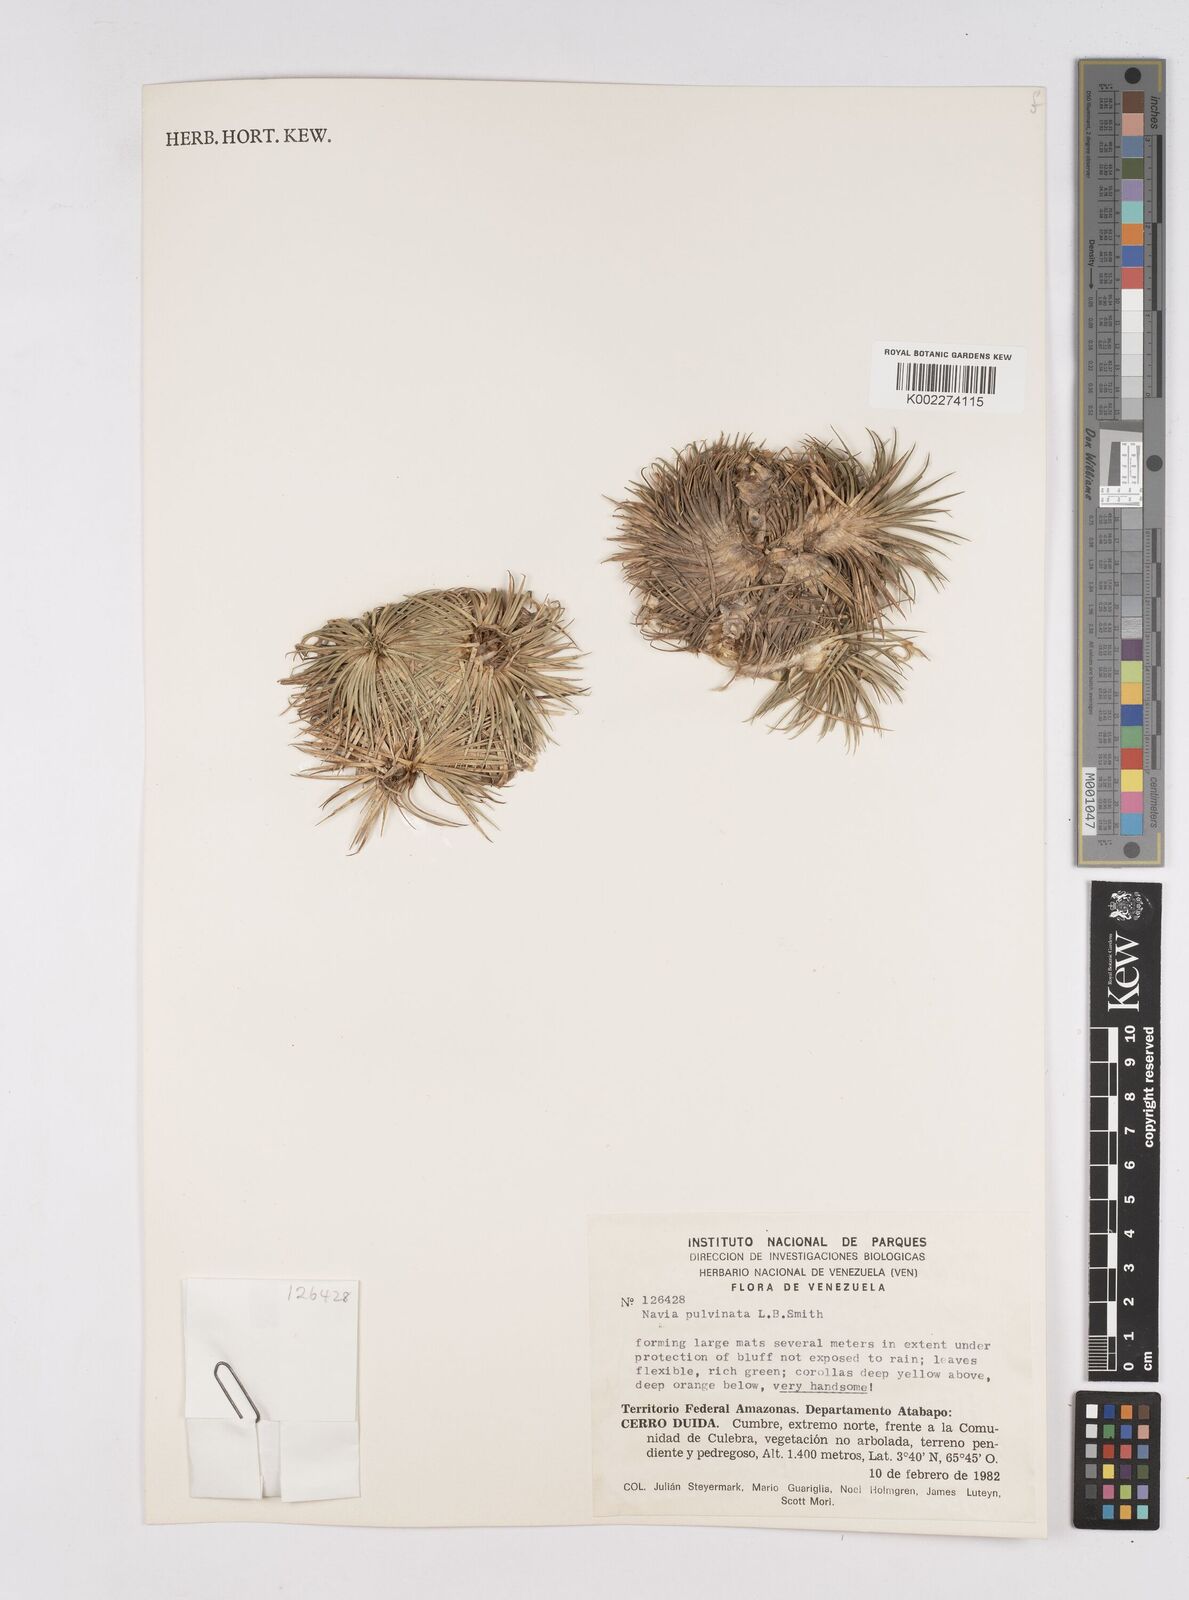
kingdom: Plantae
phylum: Tracheophyta
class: Liliopsida
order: Poales
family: Bromeliaceae
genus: Navia
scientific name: Navia pulvinata
